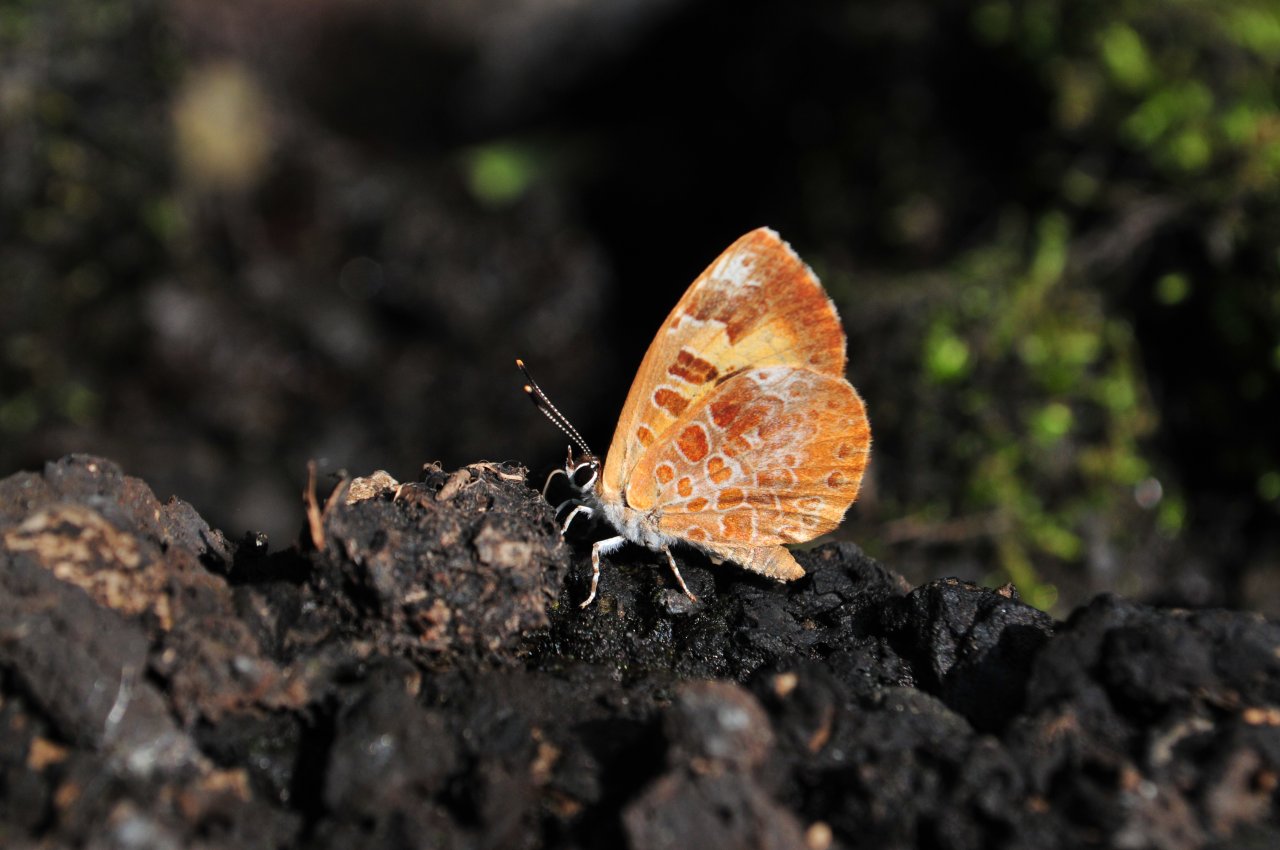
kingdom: Animalia
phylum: Arthropoda
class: Insecta
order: Lepidoptera
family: Lycaenidae
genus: Feniseca
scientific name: Feniseca tarquinius
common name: Harvester
